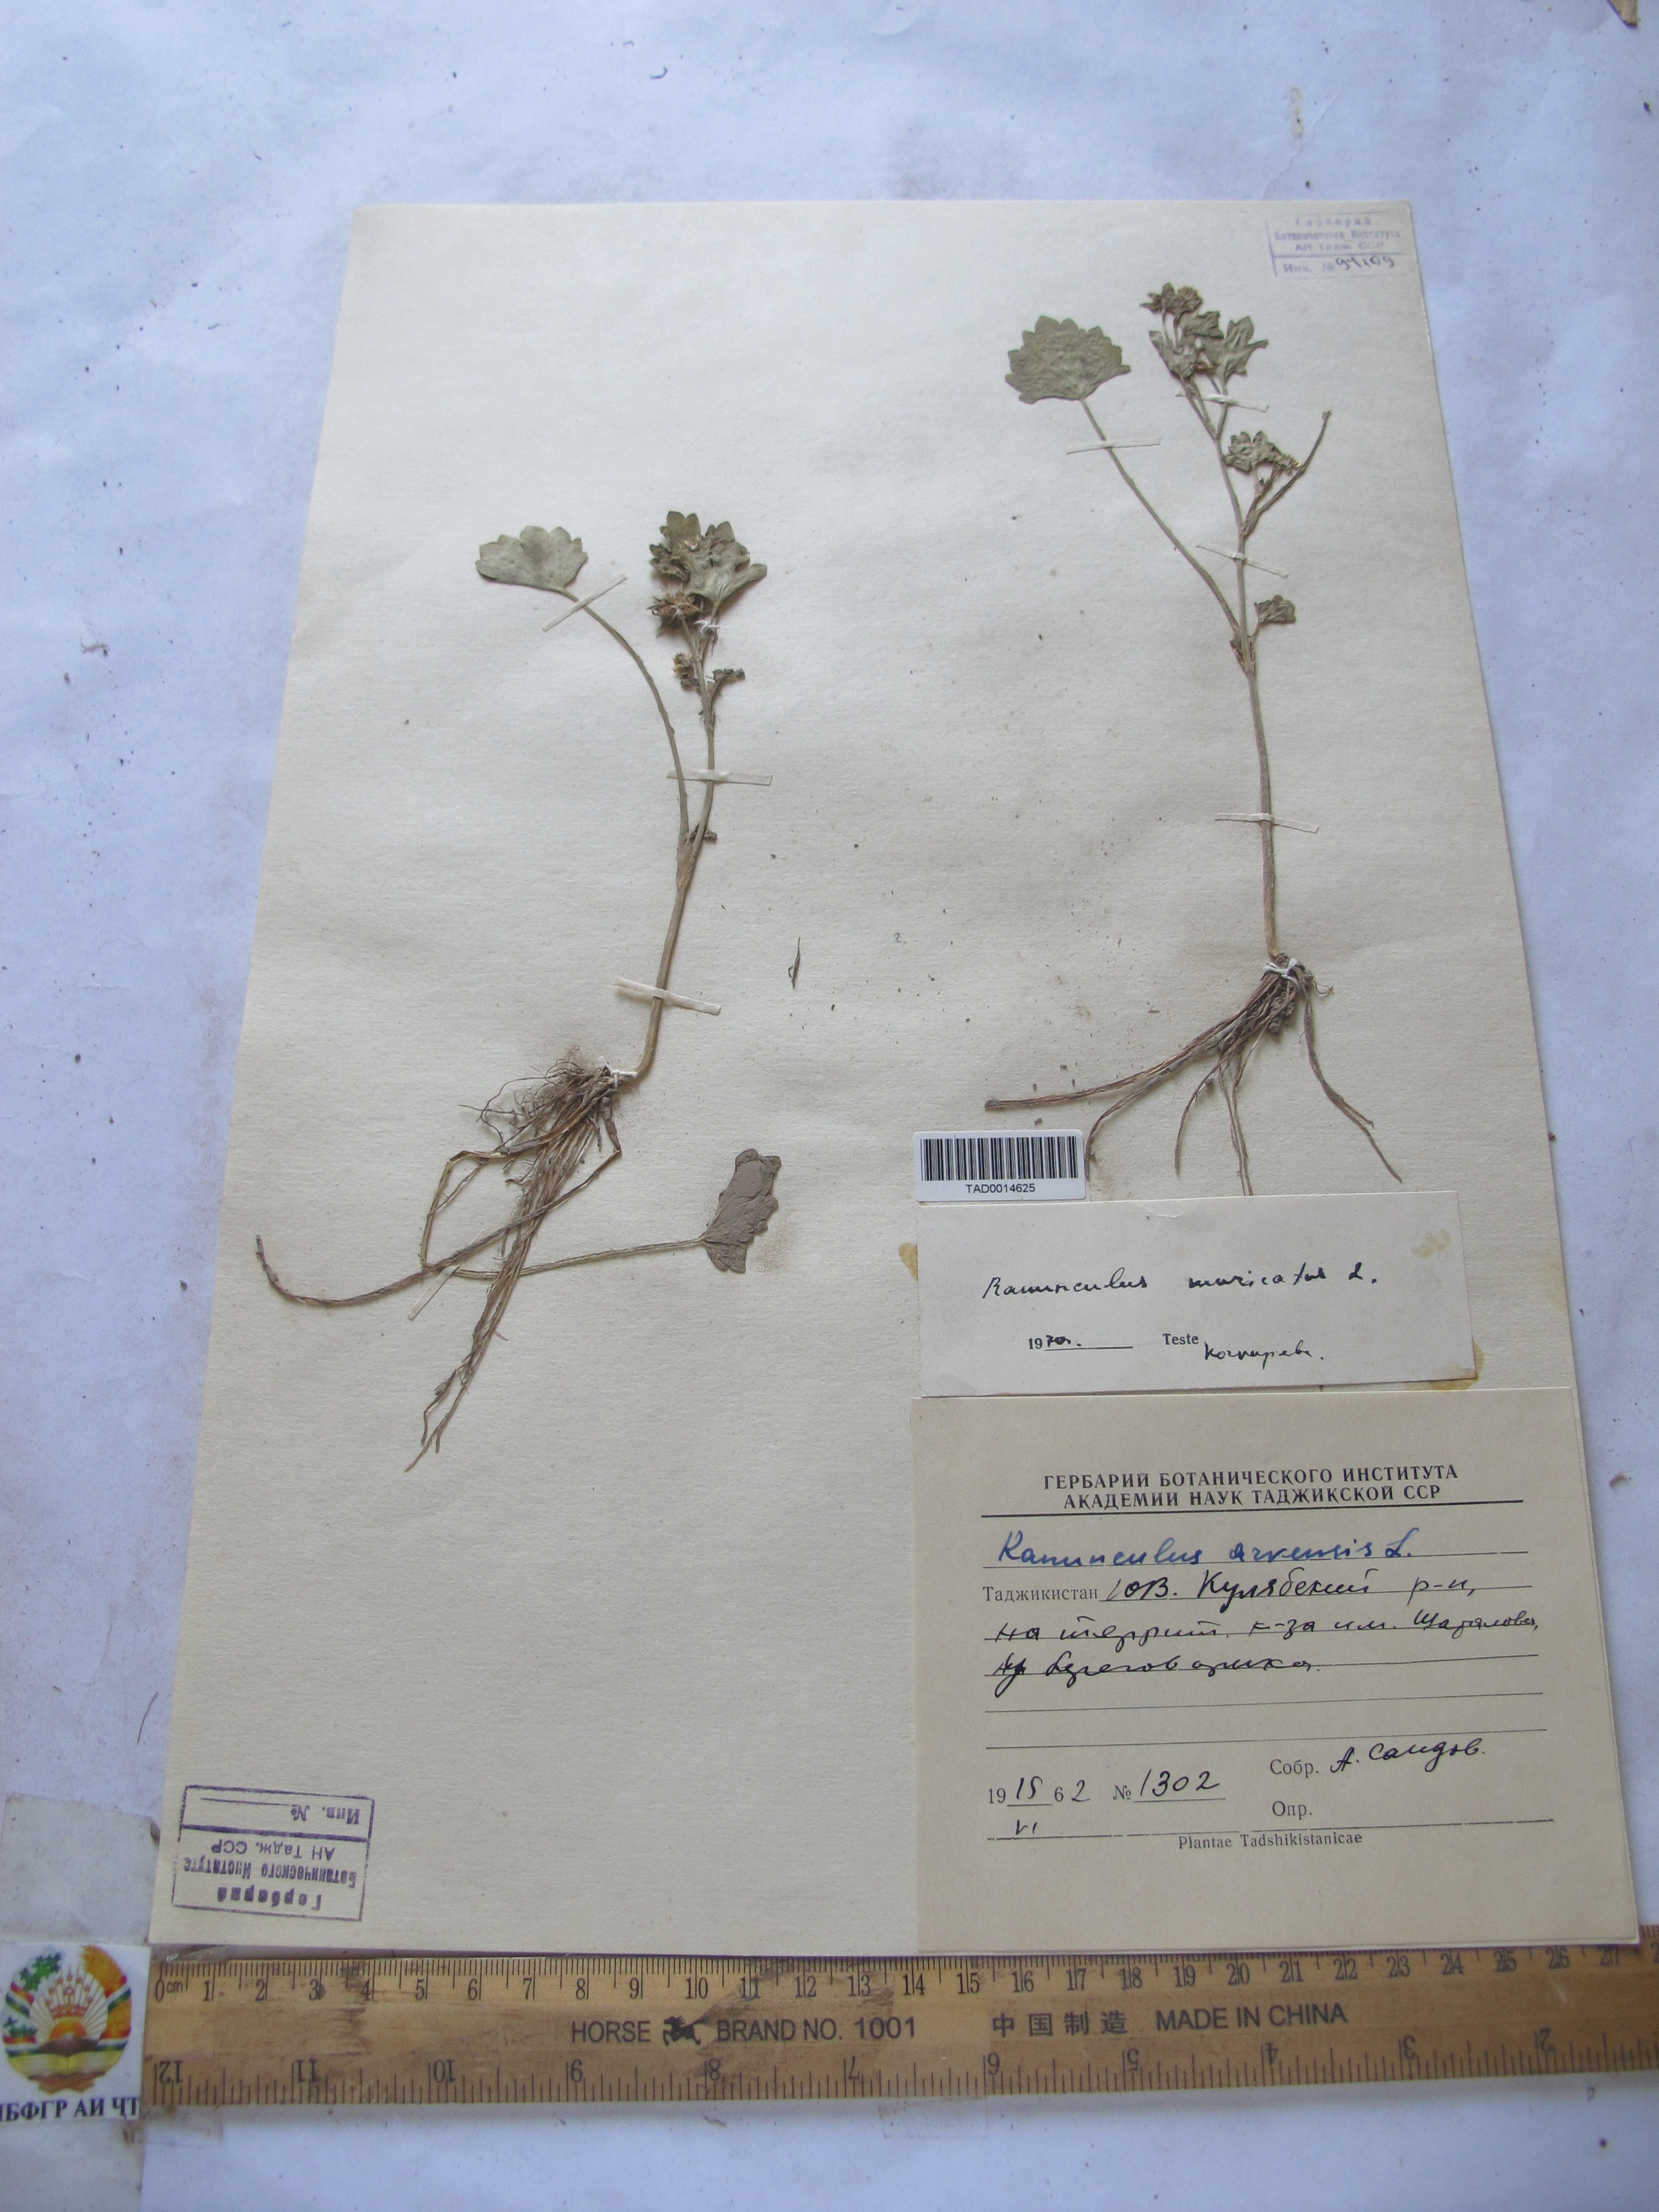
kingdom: Plantae
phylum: Tracheophyta
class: Magnoliopsida
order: Ranunculales
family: Ranunculaceae
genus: Ranunculus
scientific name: Ranunculus arvensis
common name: Corn buttercup
